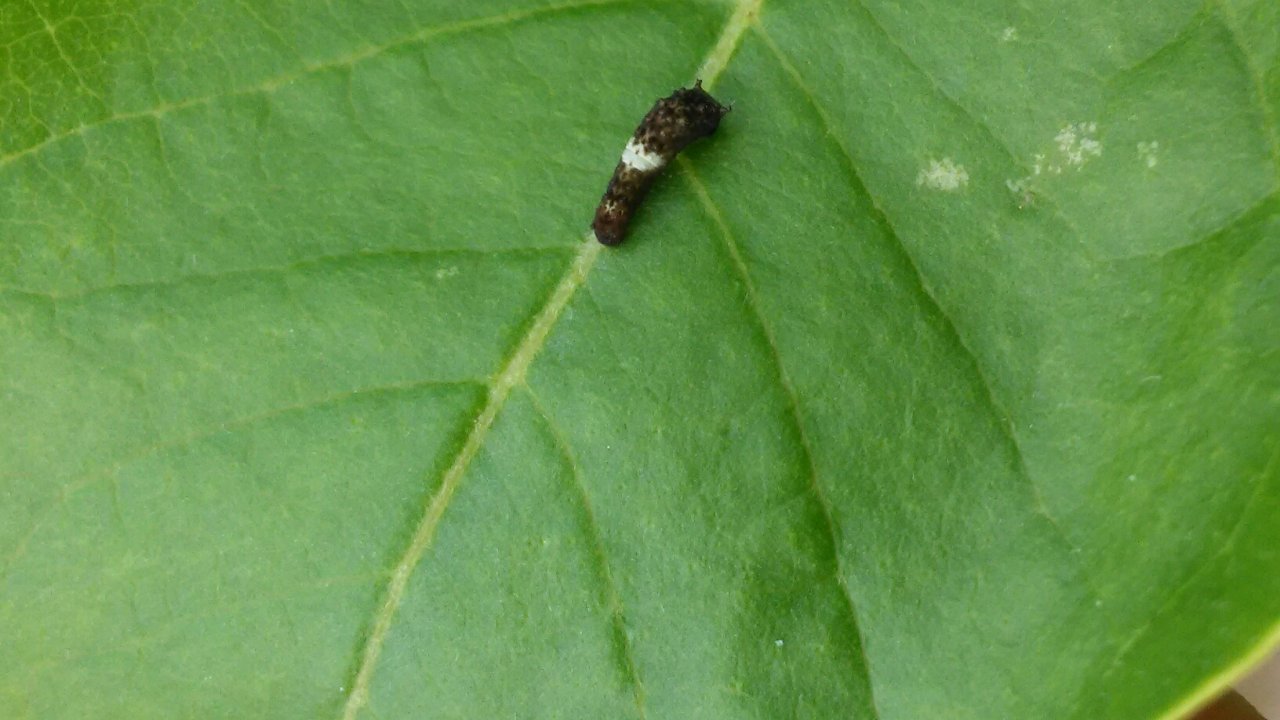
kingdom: Animalia
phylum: Arthropoda
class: Insecta
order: Lepidoptera
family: Papilionidae
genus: Papilio
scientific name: Papilio cresphontes
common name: Eastern Giant Swallowtail
